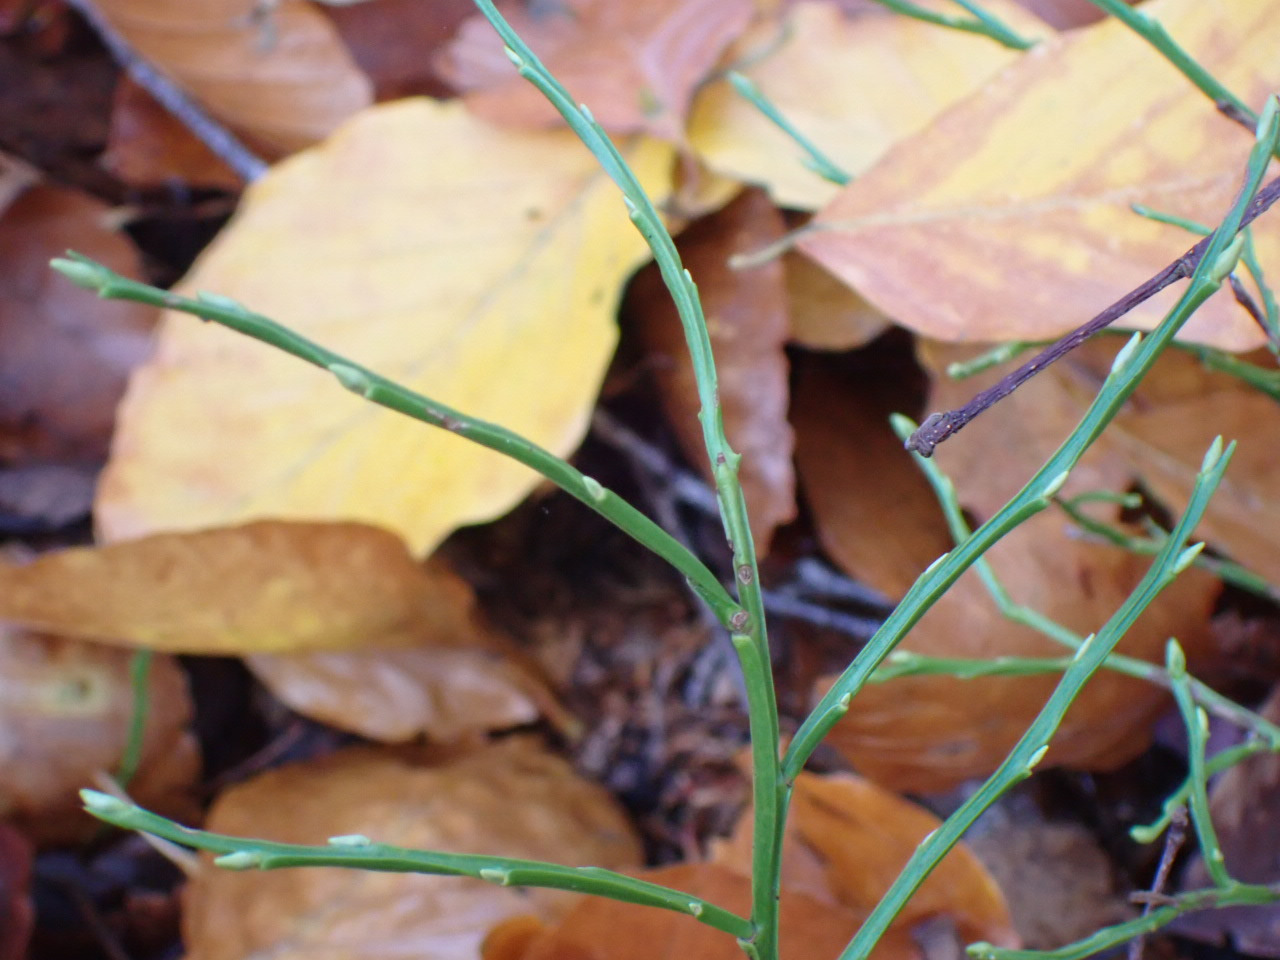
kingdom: Plantae
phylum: Tracheophyta
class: Magnoliopsida
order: Ericales
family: Ericaceae
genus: Vaccinium
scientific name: Vaccinium myrtillus
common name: Blåbær
